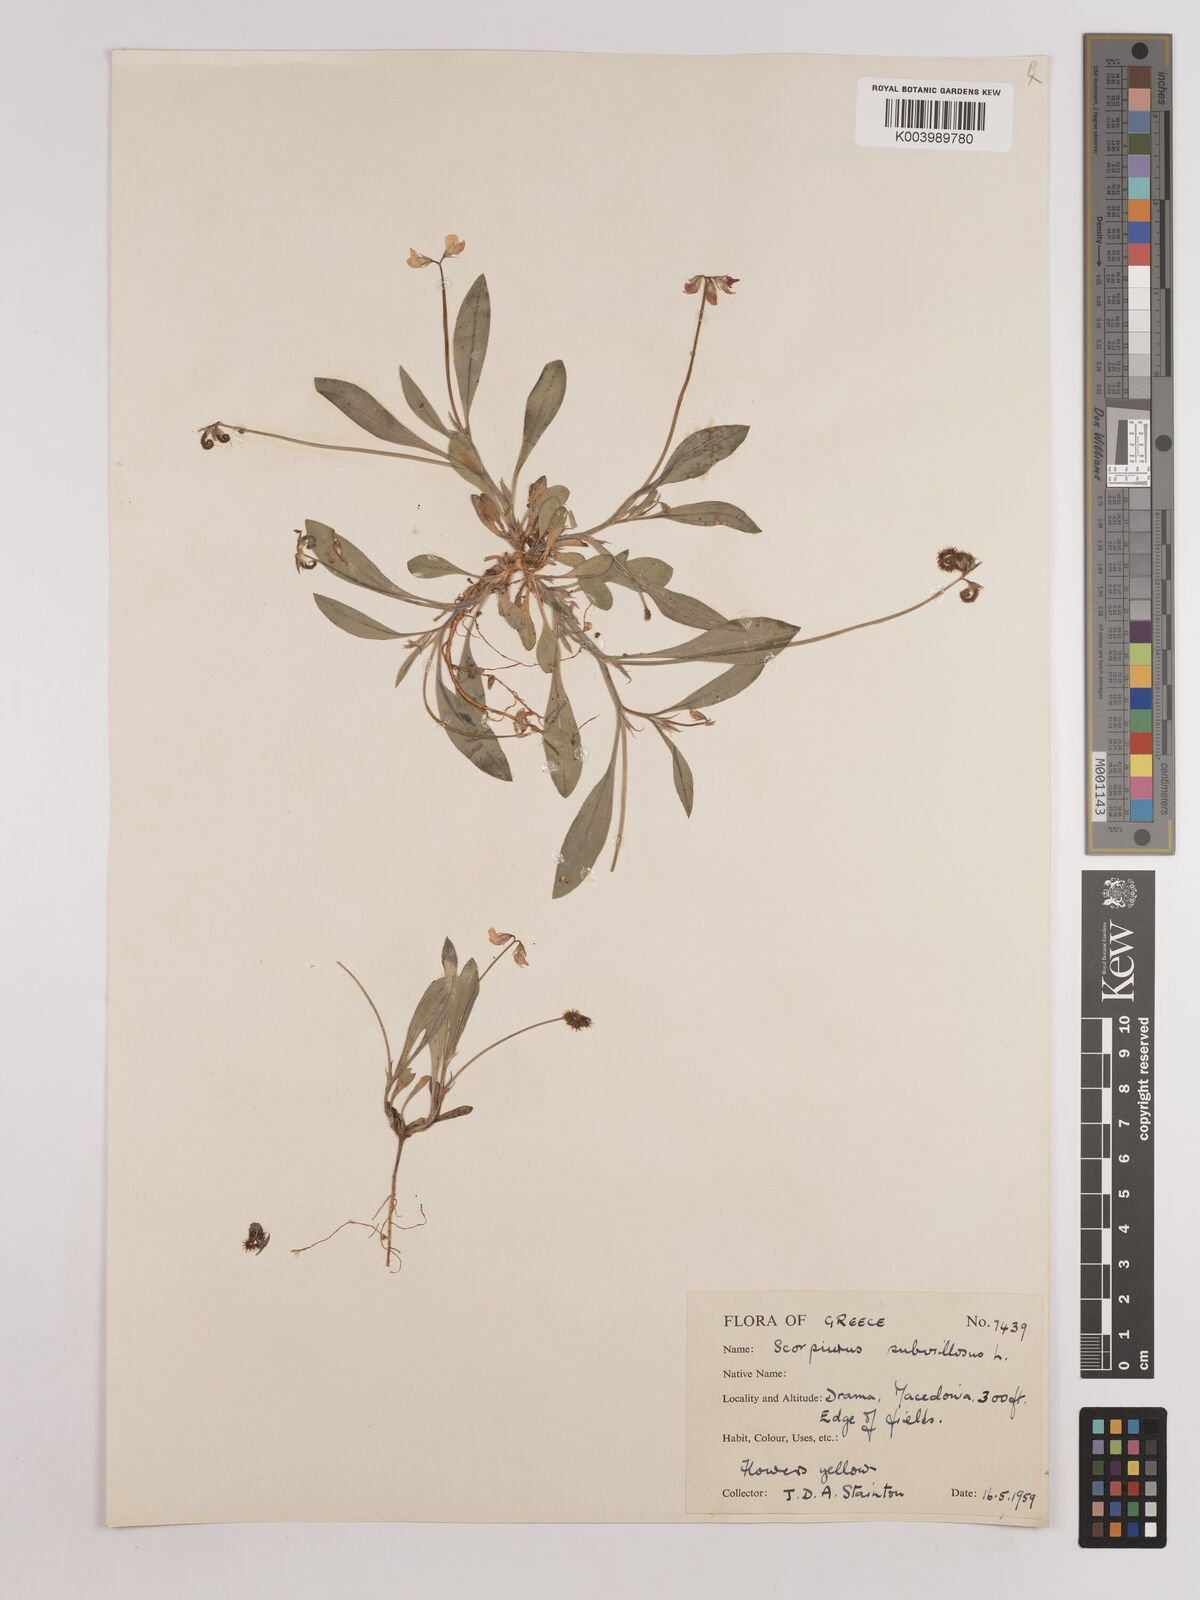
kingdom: Plantae
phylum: Tracheophyta
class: Magnoliopsida
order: Fabales
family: Fabaceae
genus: Scorpiurus
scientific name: Scorpiurus muricatus
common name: Caterpillar-plant
